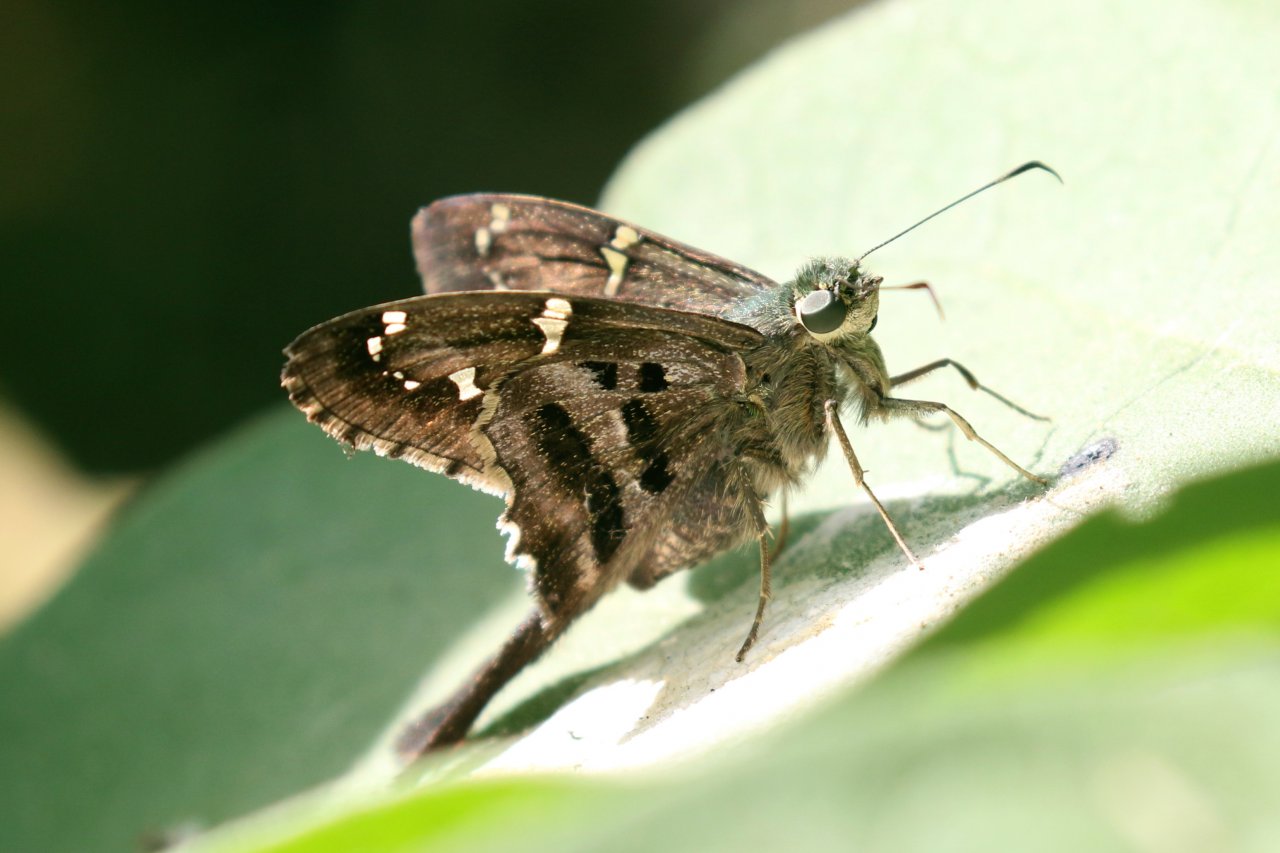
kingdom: Animalia
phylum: Arthropoda
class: Insecta
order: Lepidoptera
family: Hesperiidae
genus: Urbanus
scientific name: Urbanus proteus
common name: Long-tailed Skipper
